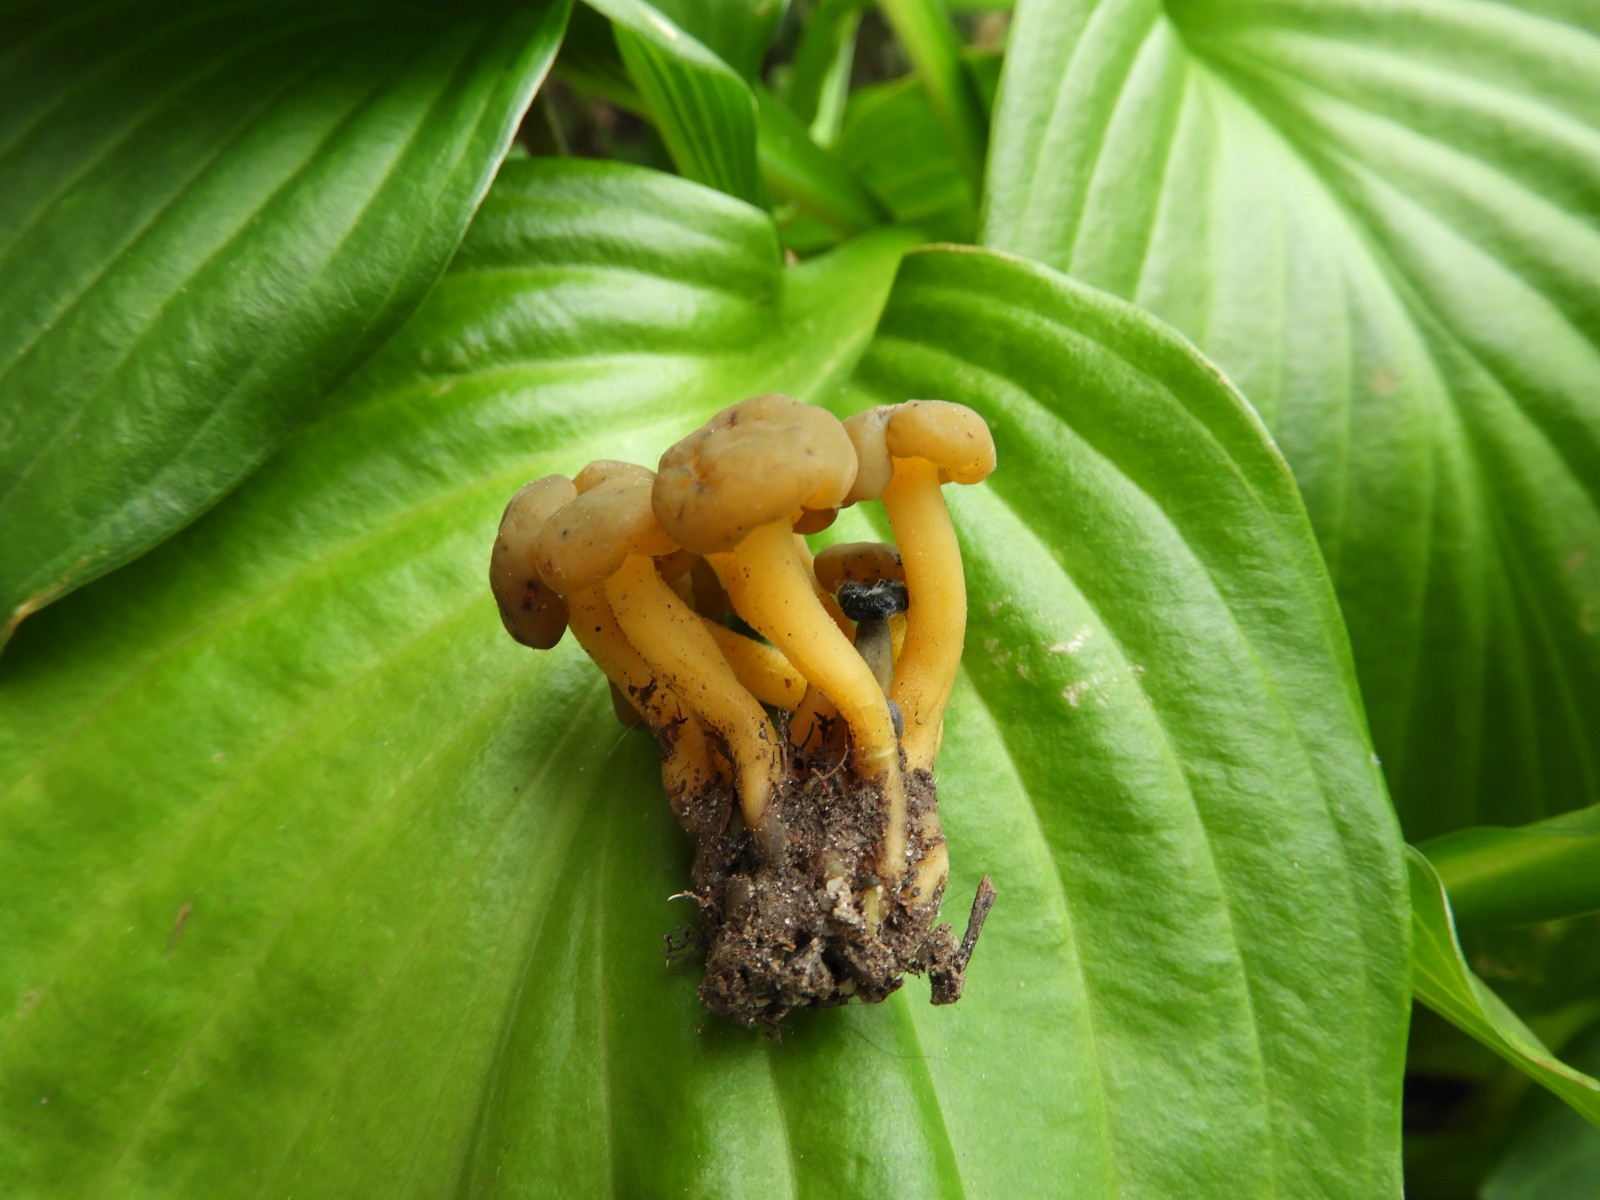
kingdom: Fungi
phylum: Ascomycota
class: Leotiomycetes
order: Leotiales
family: Leotiaceae
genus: Leotia
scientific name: Leotia lubrica
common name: ravsvamp
